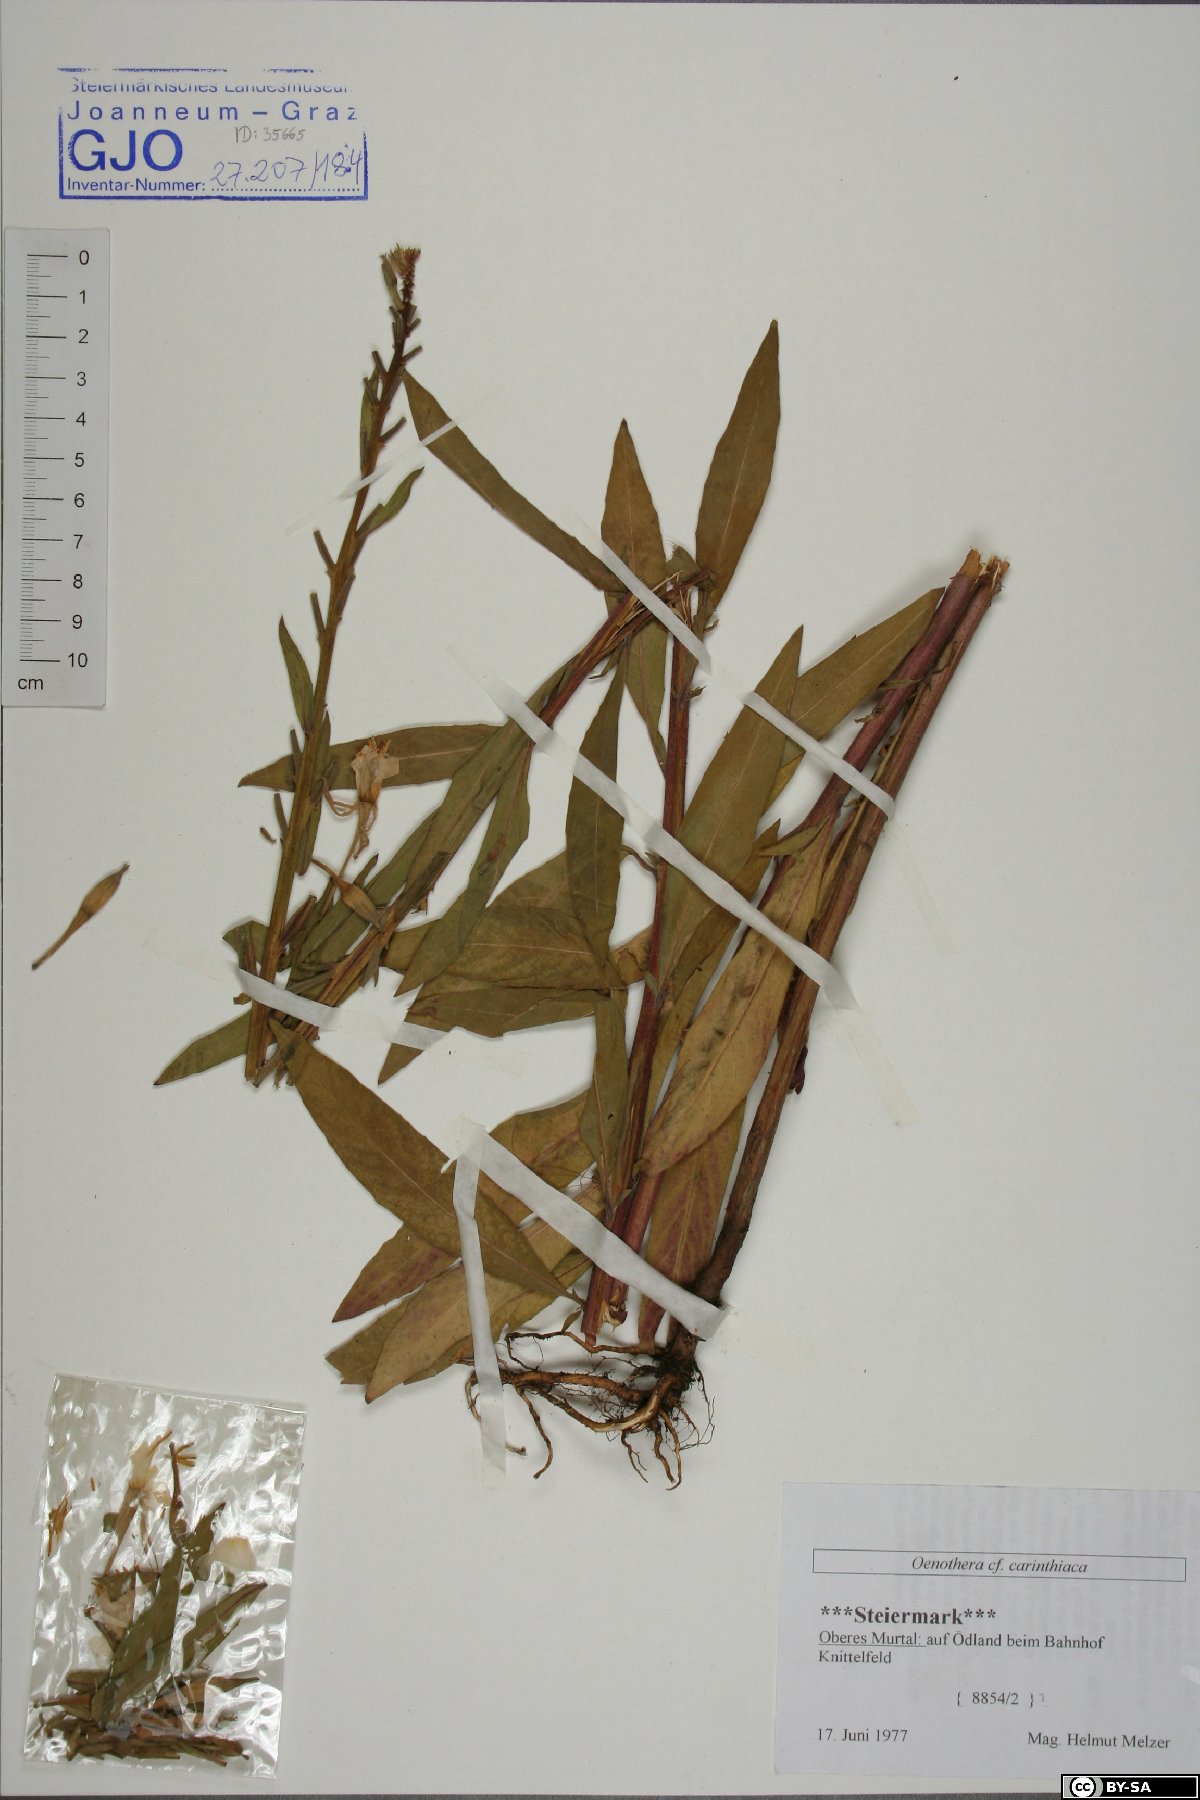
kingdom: Plantae
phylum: Tracheophyta
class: Magnoliopsida
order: Myrtales
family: Onagraceae
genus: Oenothera
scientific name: Oenothera carinthiaca
